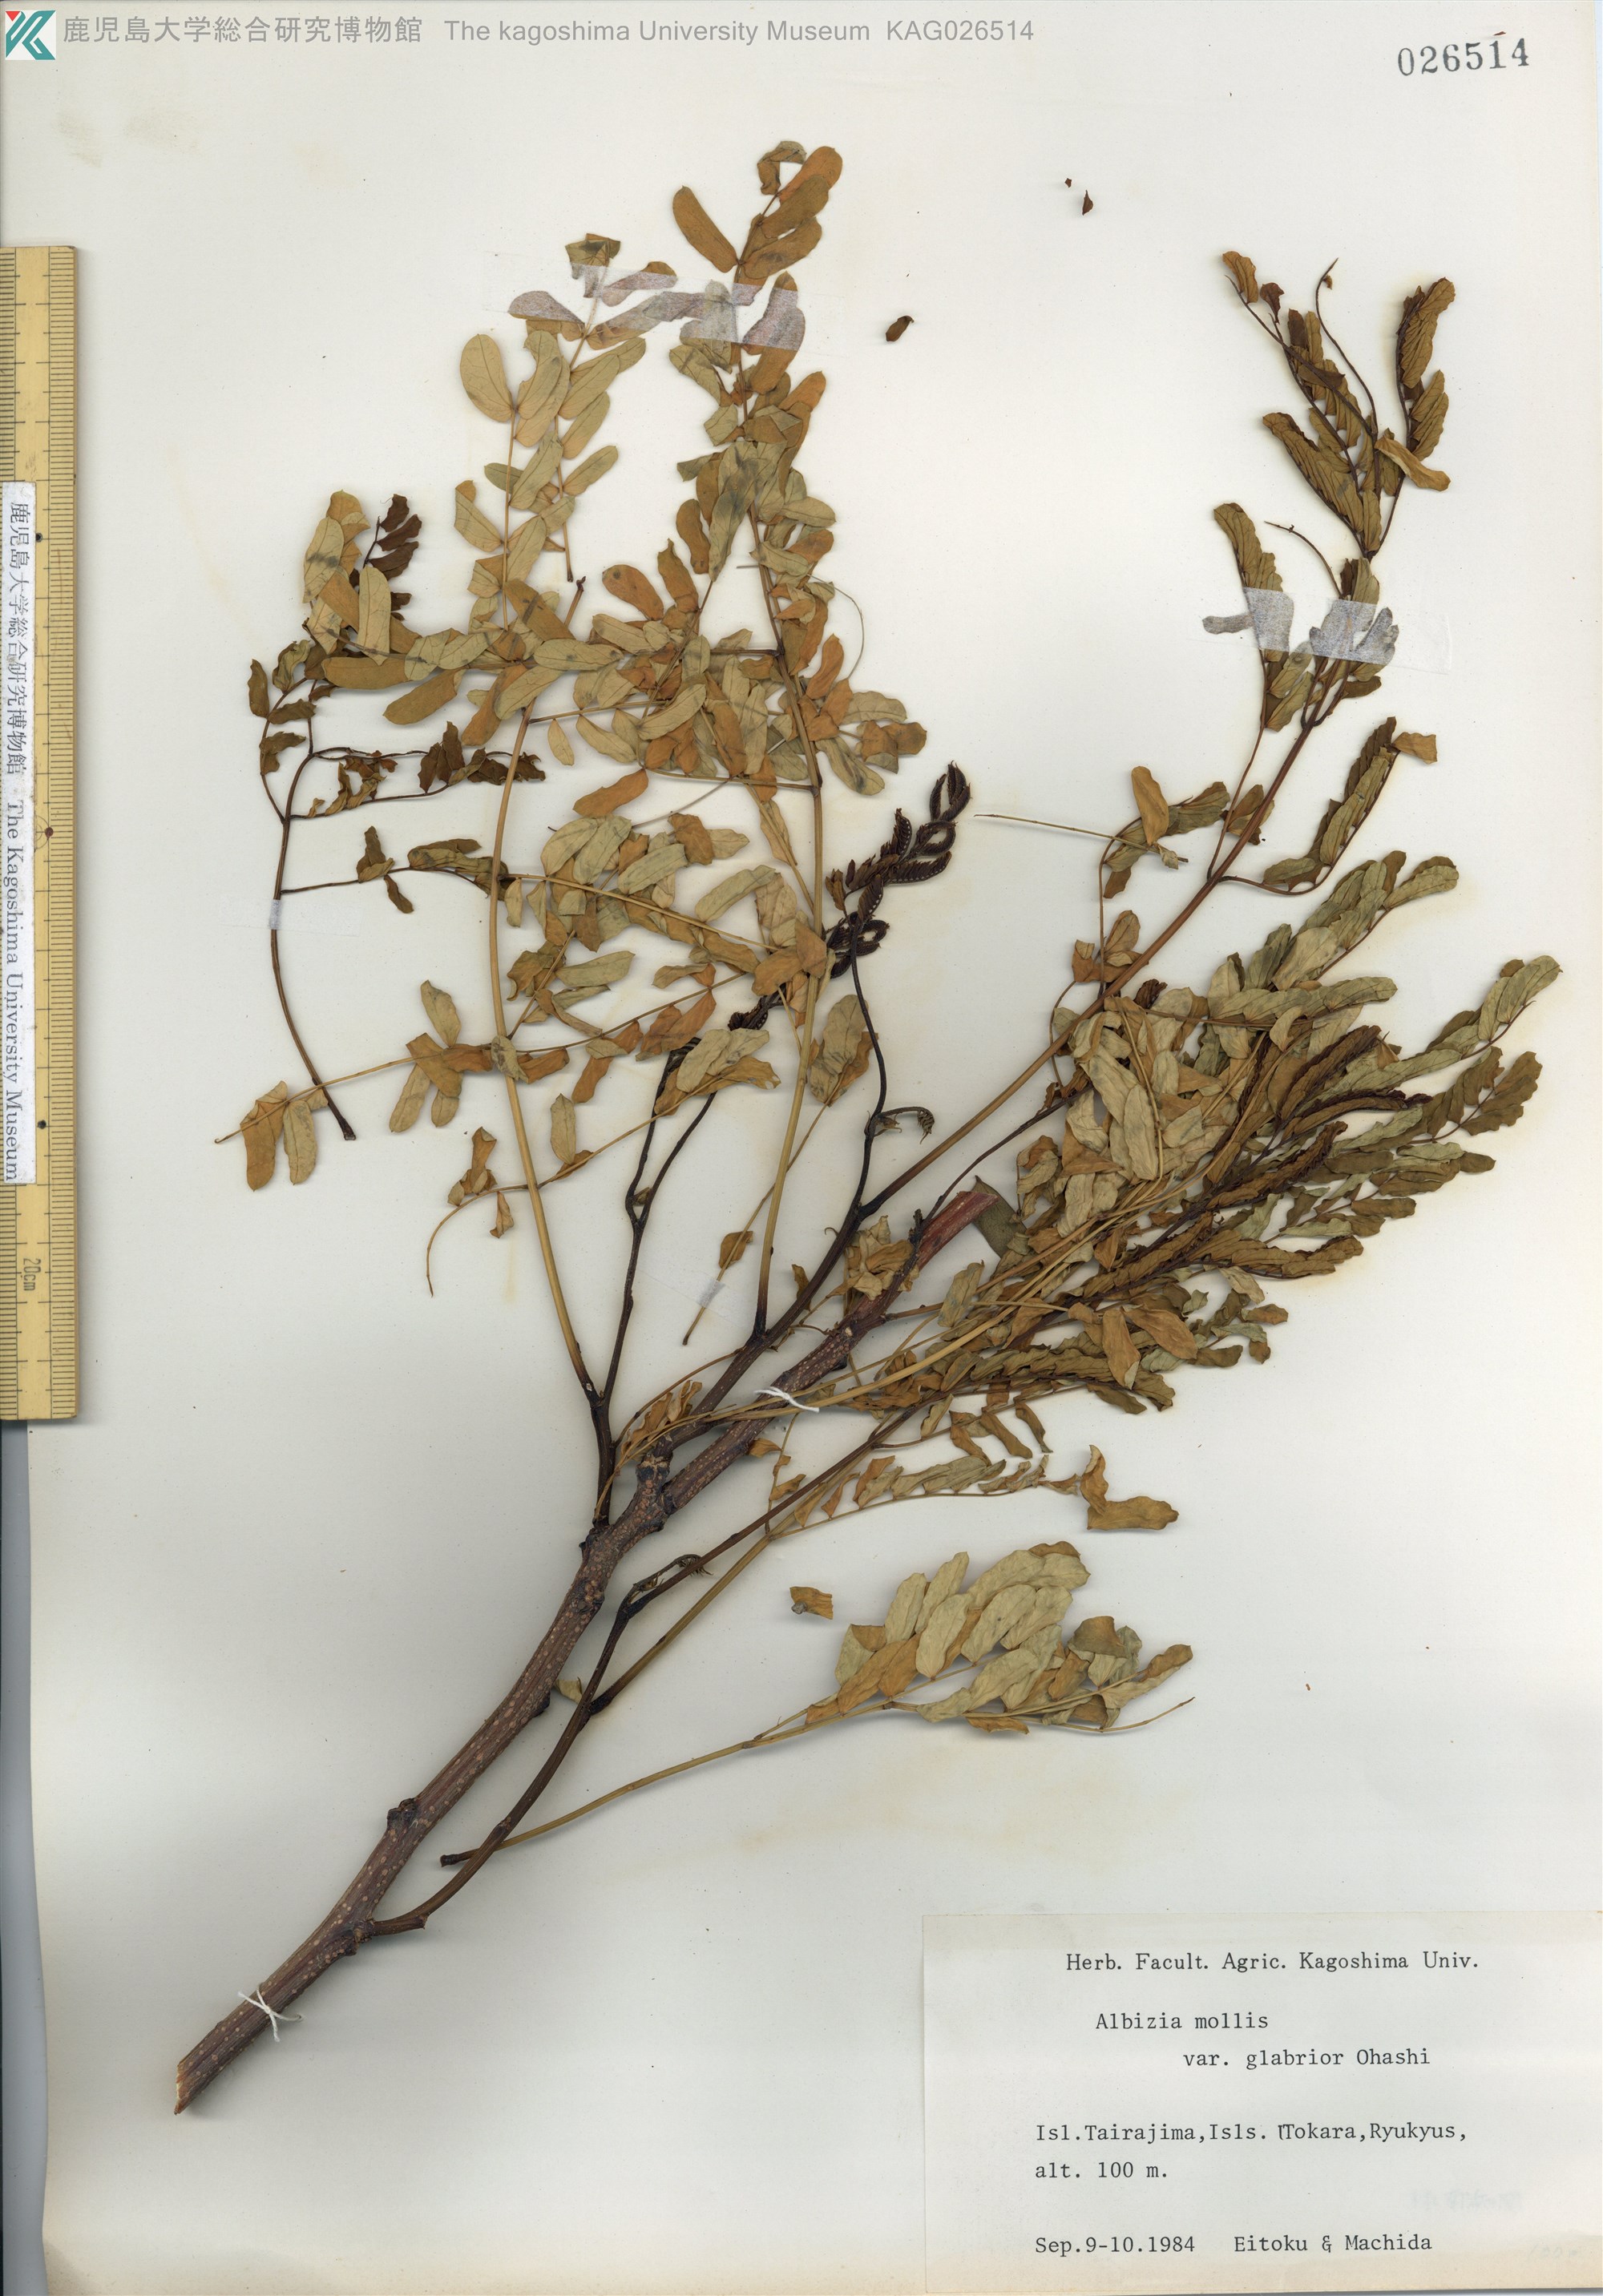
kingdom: Plantae
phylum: Tracheophyta
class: Magnoliopsida
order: Fabales
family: Fabaceae
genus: Albizia
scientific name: Albizia kalkora
